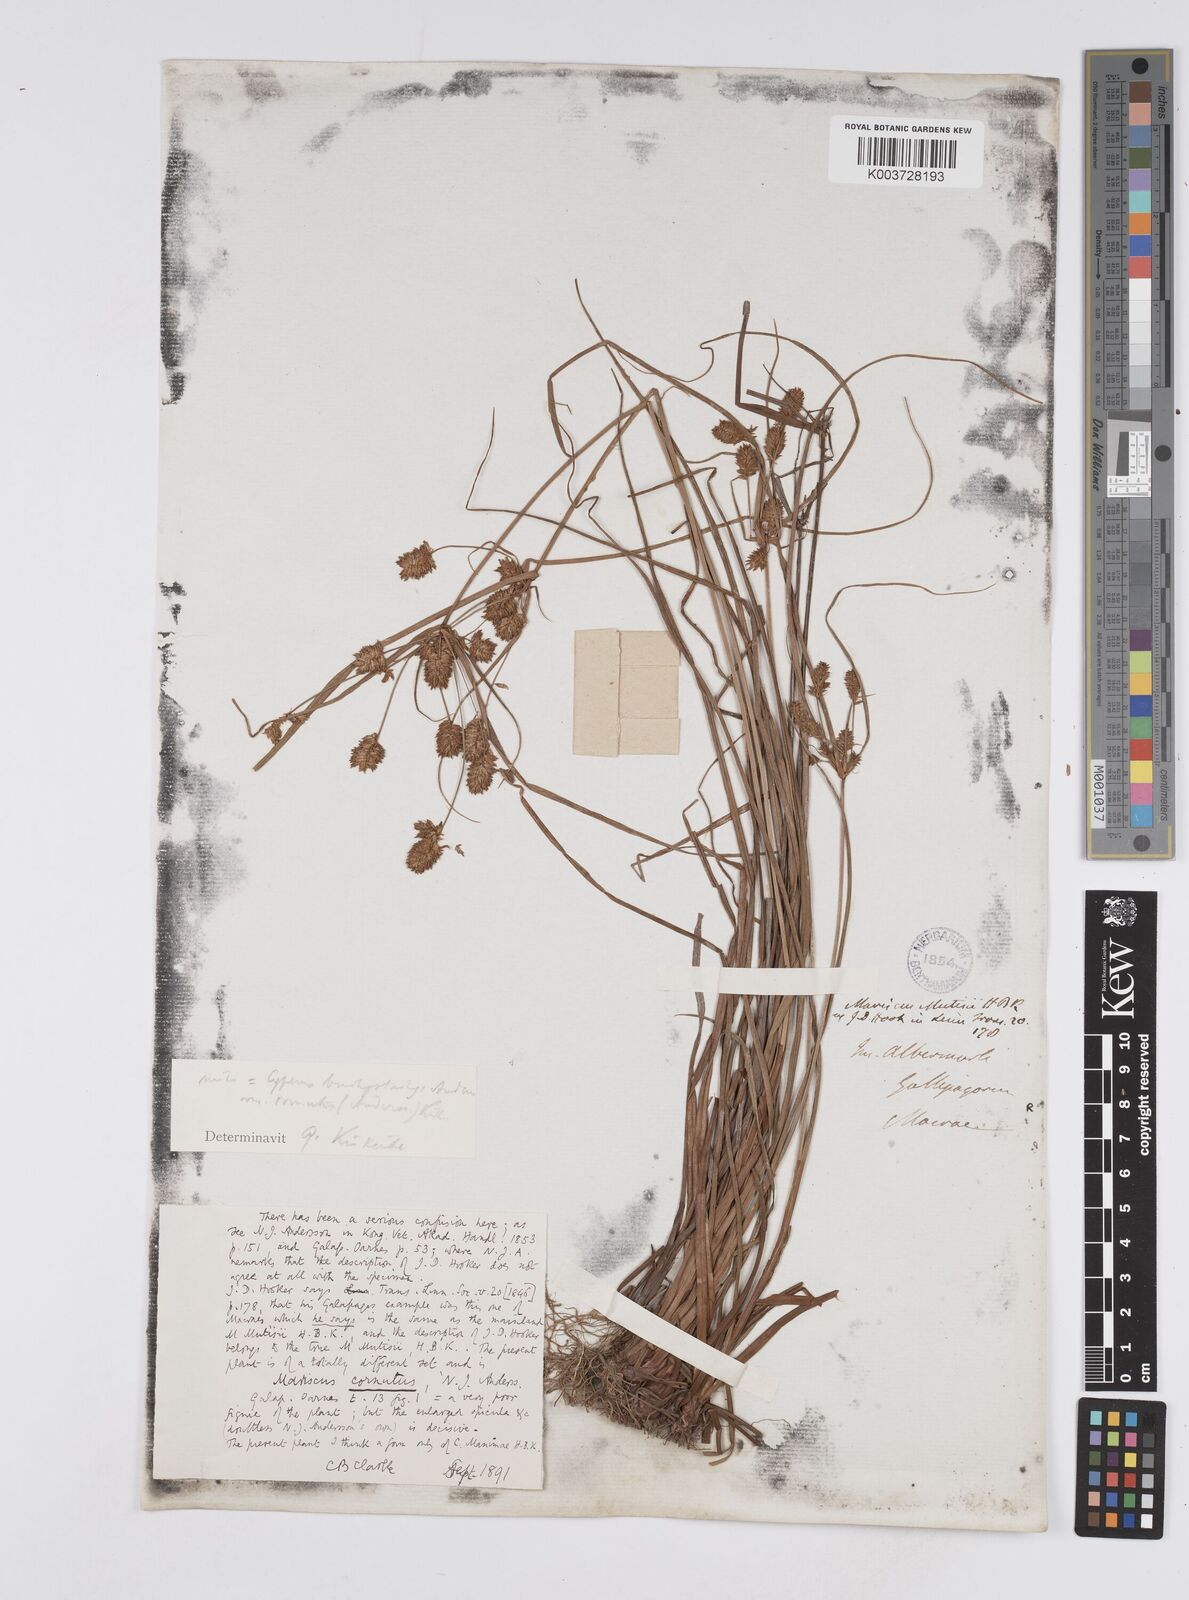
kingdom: Plantae
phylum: Tracheophyta
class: Liliopsida
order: Poales
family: Cyperaceae
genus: Cyperus
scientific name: Cyperus anderssonii
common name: Andersson's sedge
